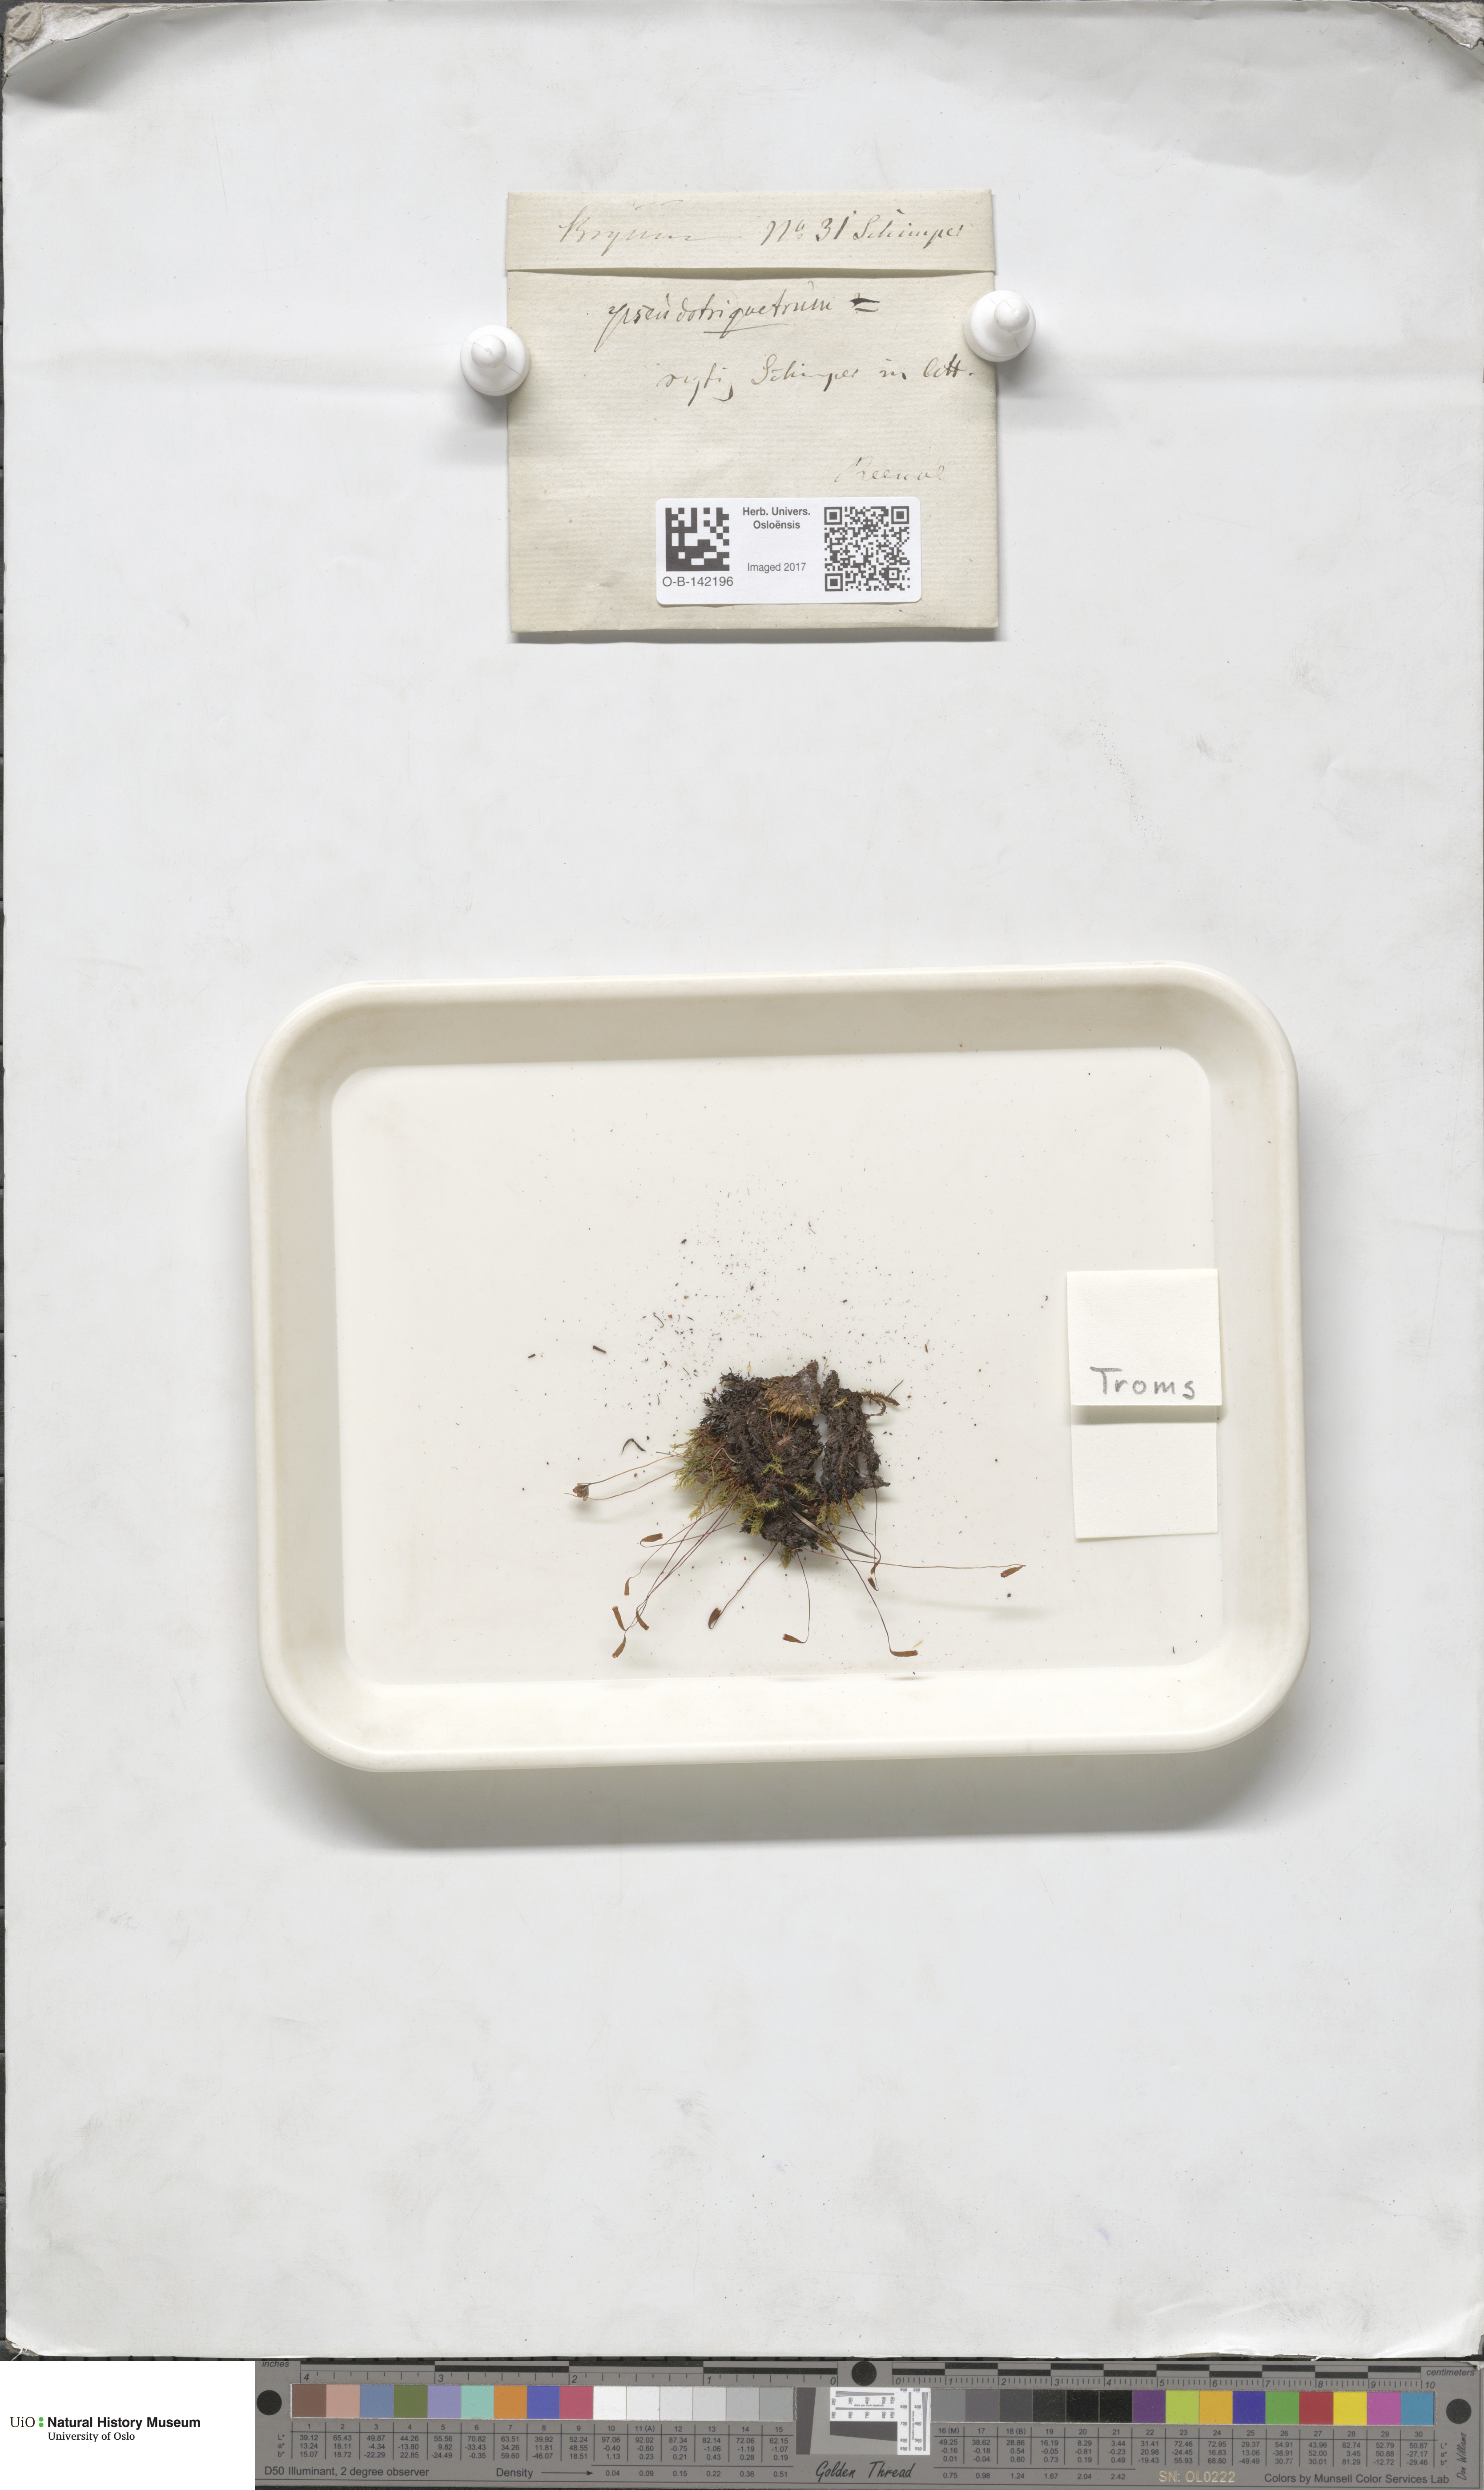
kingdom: Plantae
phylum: Bryophyta
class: Bryopsida
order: Bryales
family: Bryaceae
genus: Ptychostomum
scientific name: Ptychostomum pseudotriquetrum
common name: Long-leaved thread moss
